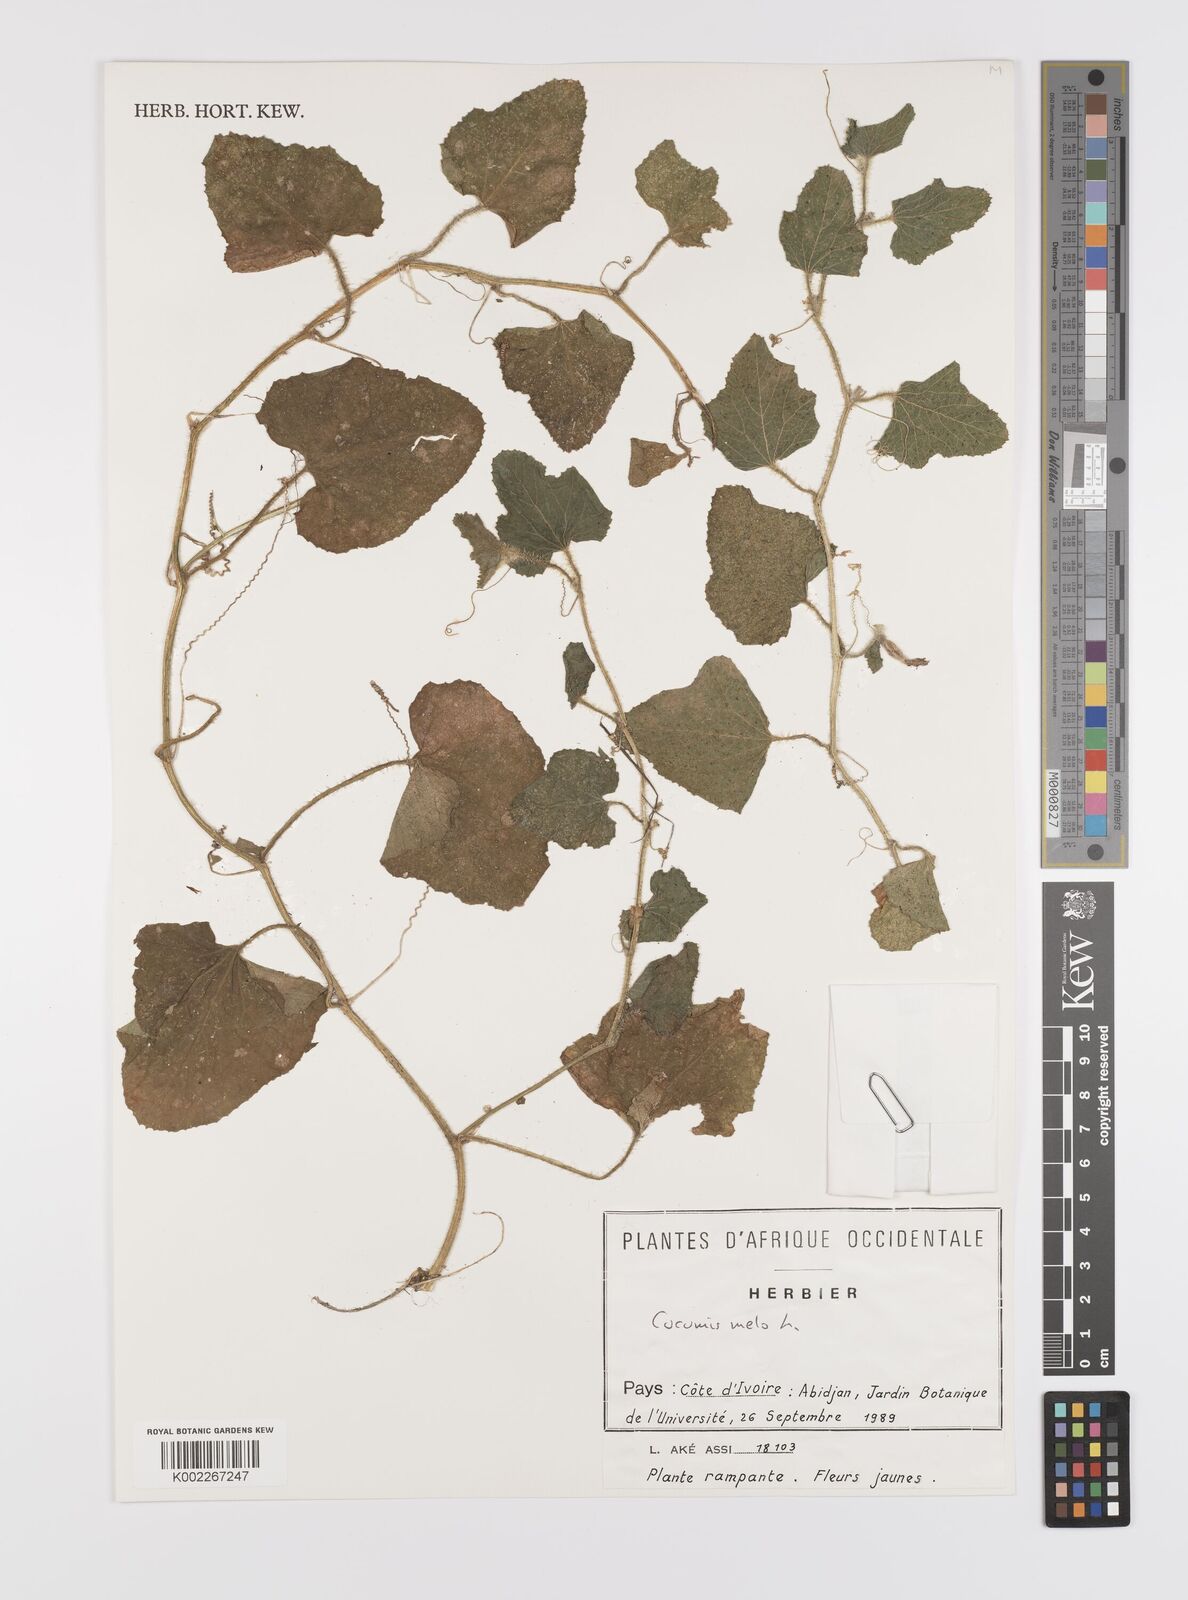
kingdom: Plantae
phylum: Tracheophyta
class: Magnoliopsida
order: Cucurbitales
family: Cucurbitaceae
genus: Cucumis
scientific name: Cucumis melo
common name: Melon
